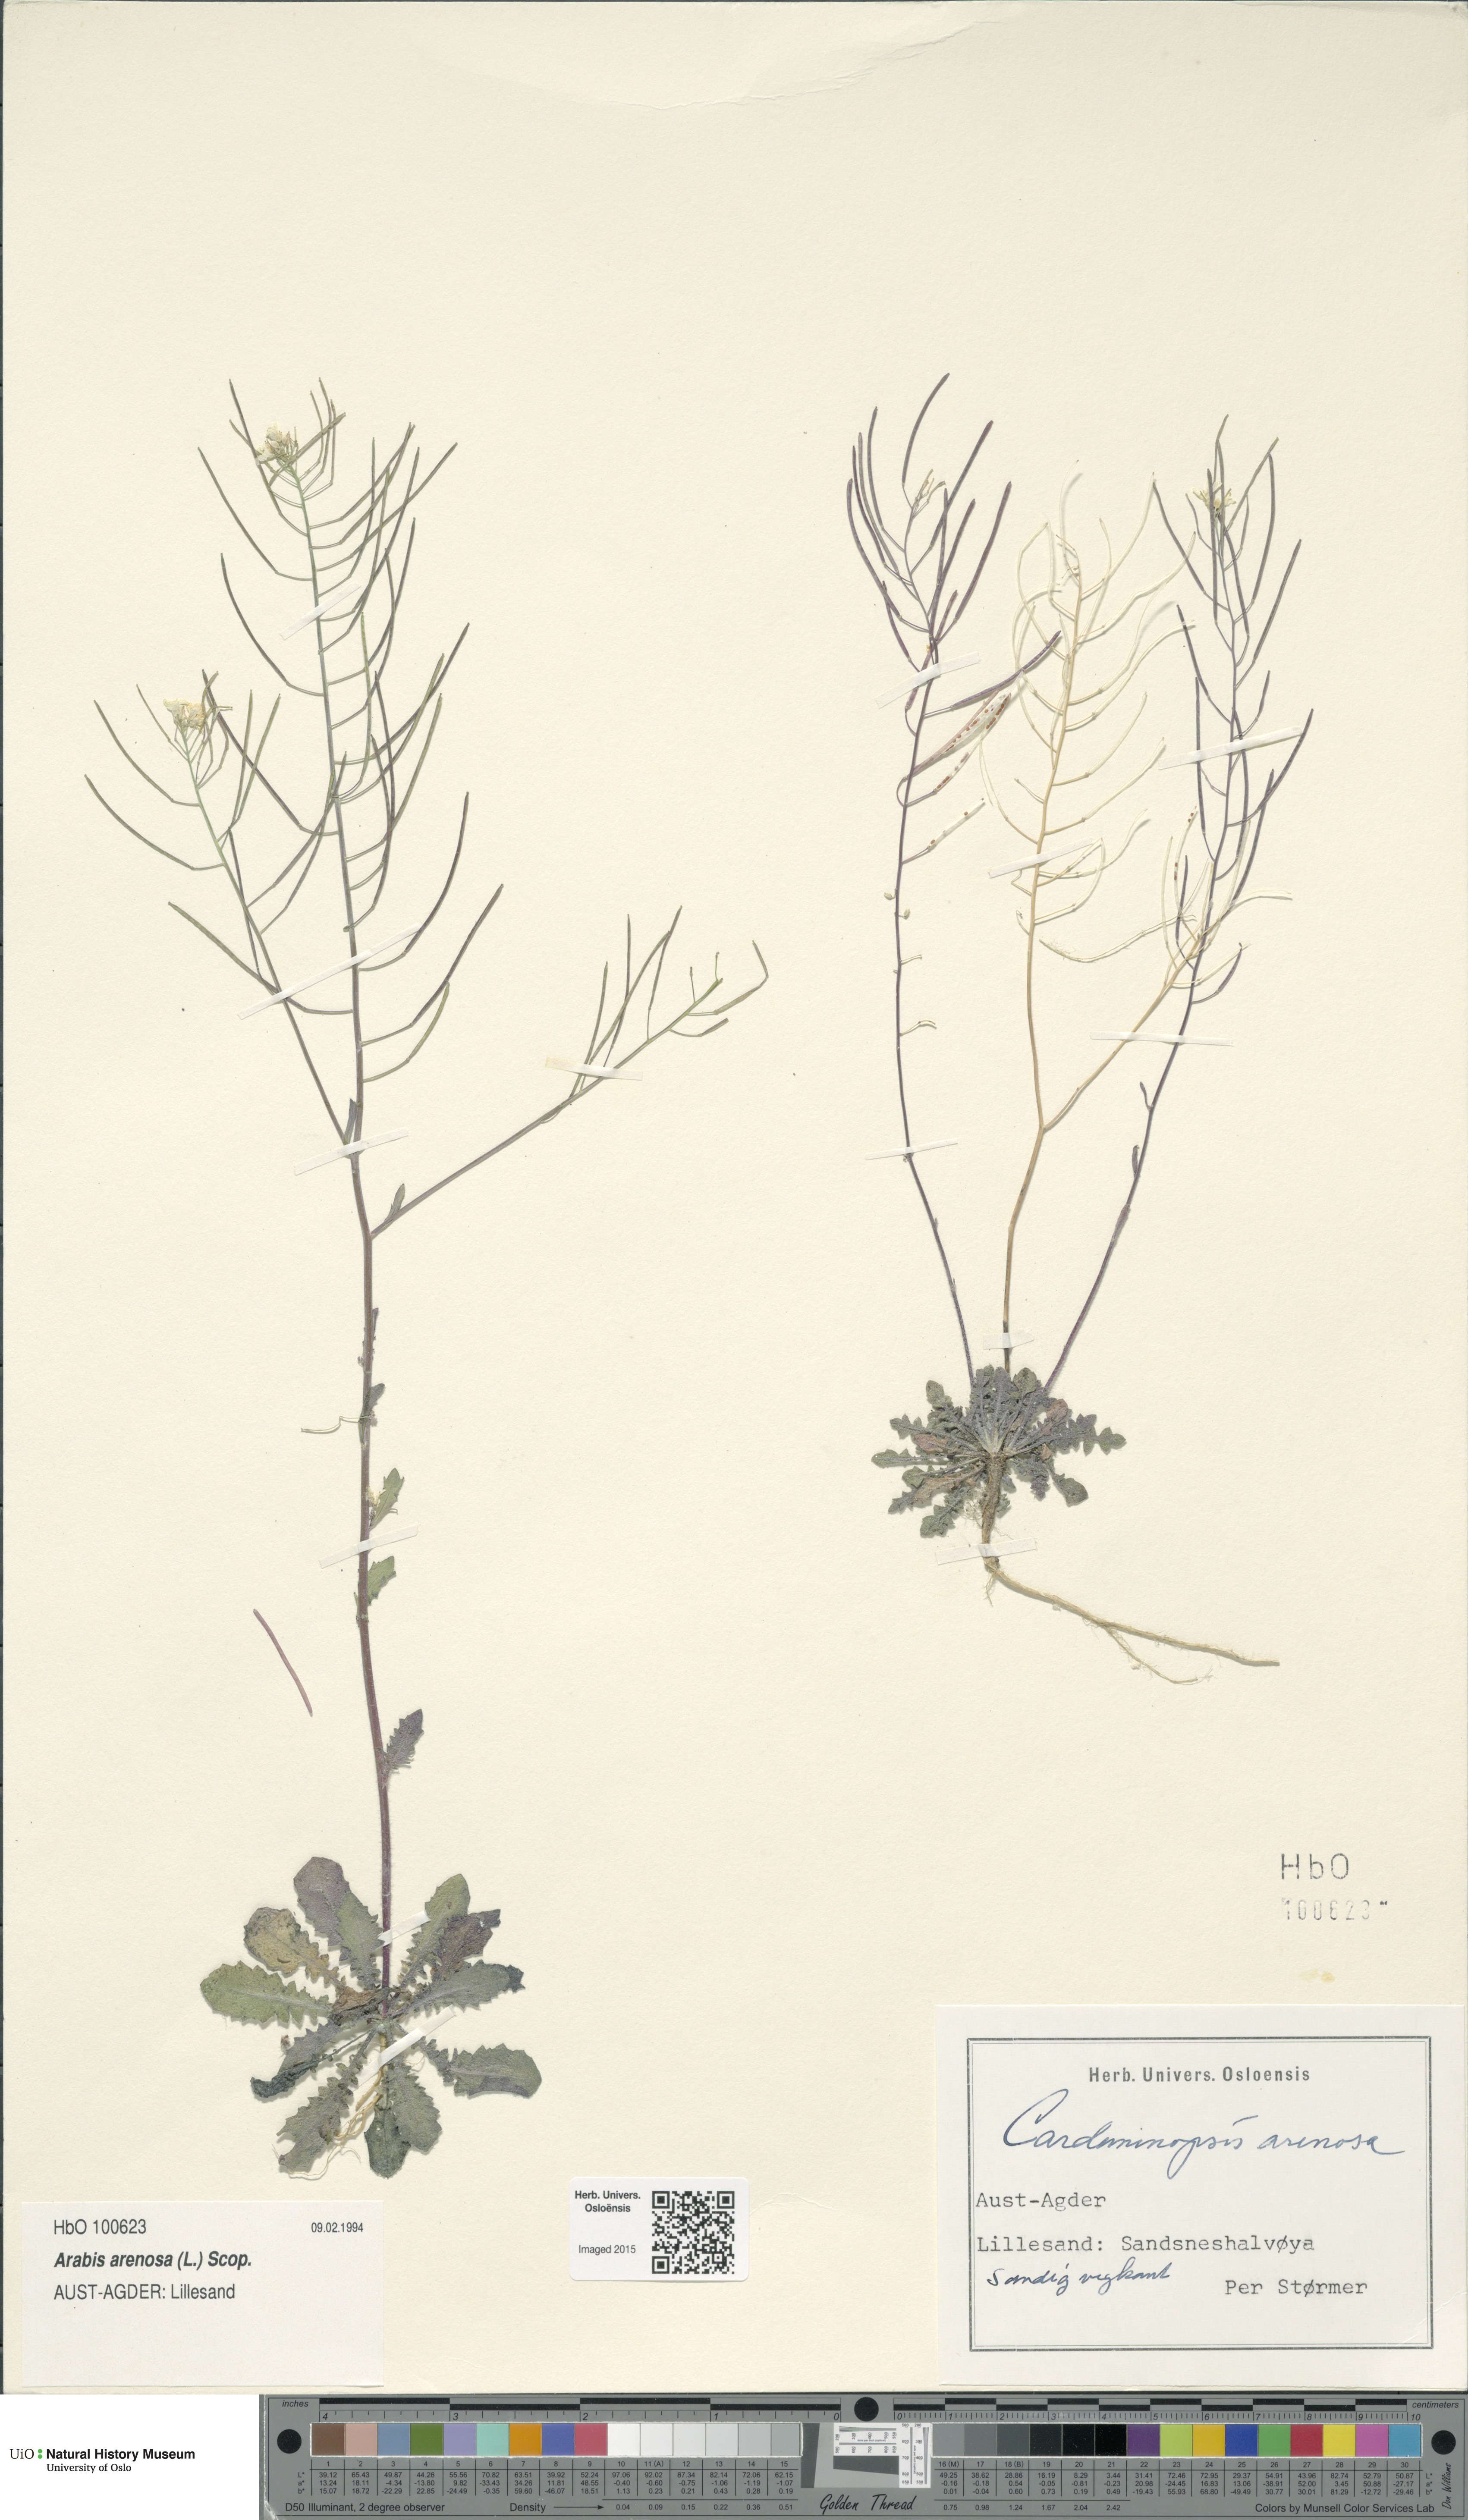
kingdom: Plantae
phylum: Tracheophyta
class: Magnoliopsida
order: Brassicales
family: Brassicaceae
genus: Arabidopsis
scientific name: Arabidopsis arenosa
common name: Sand rock-cress
